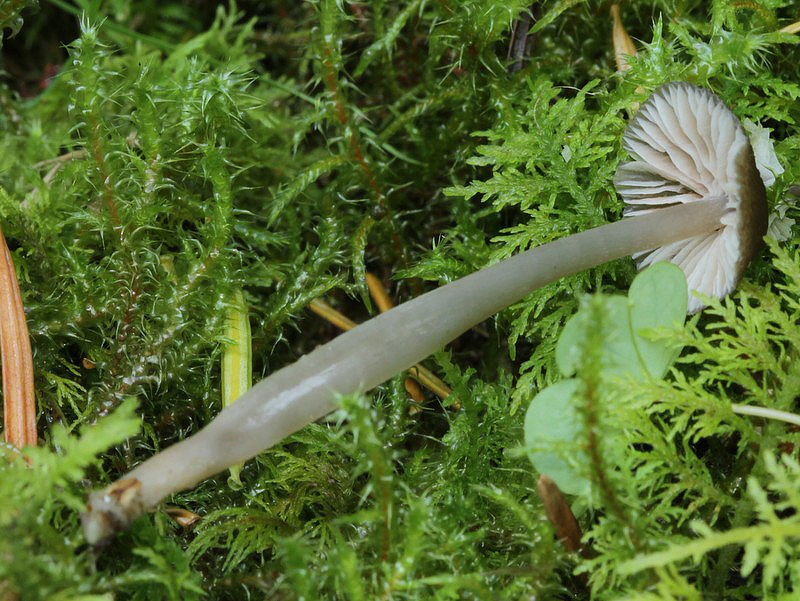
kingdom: Fungi
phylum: Basidiomycota
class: Agaricomycetes
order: Agaricales
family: Entolomataceae
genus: Entoloma
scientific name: Entoloma velenovskyi
